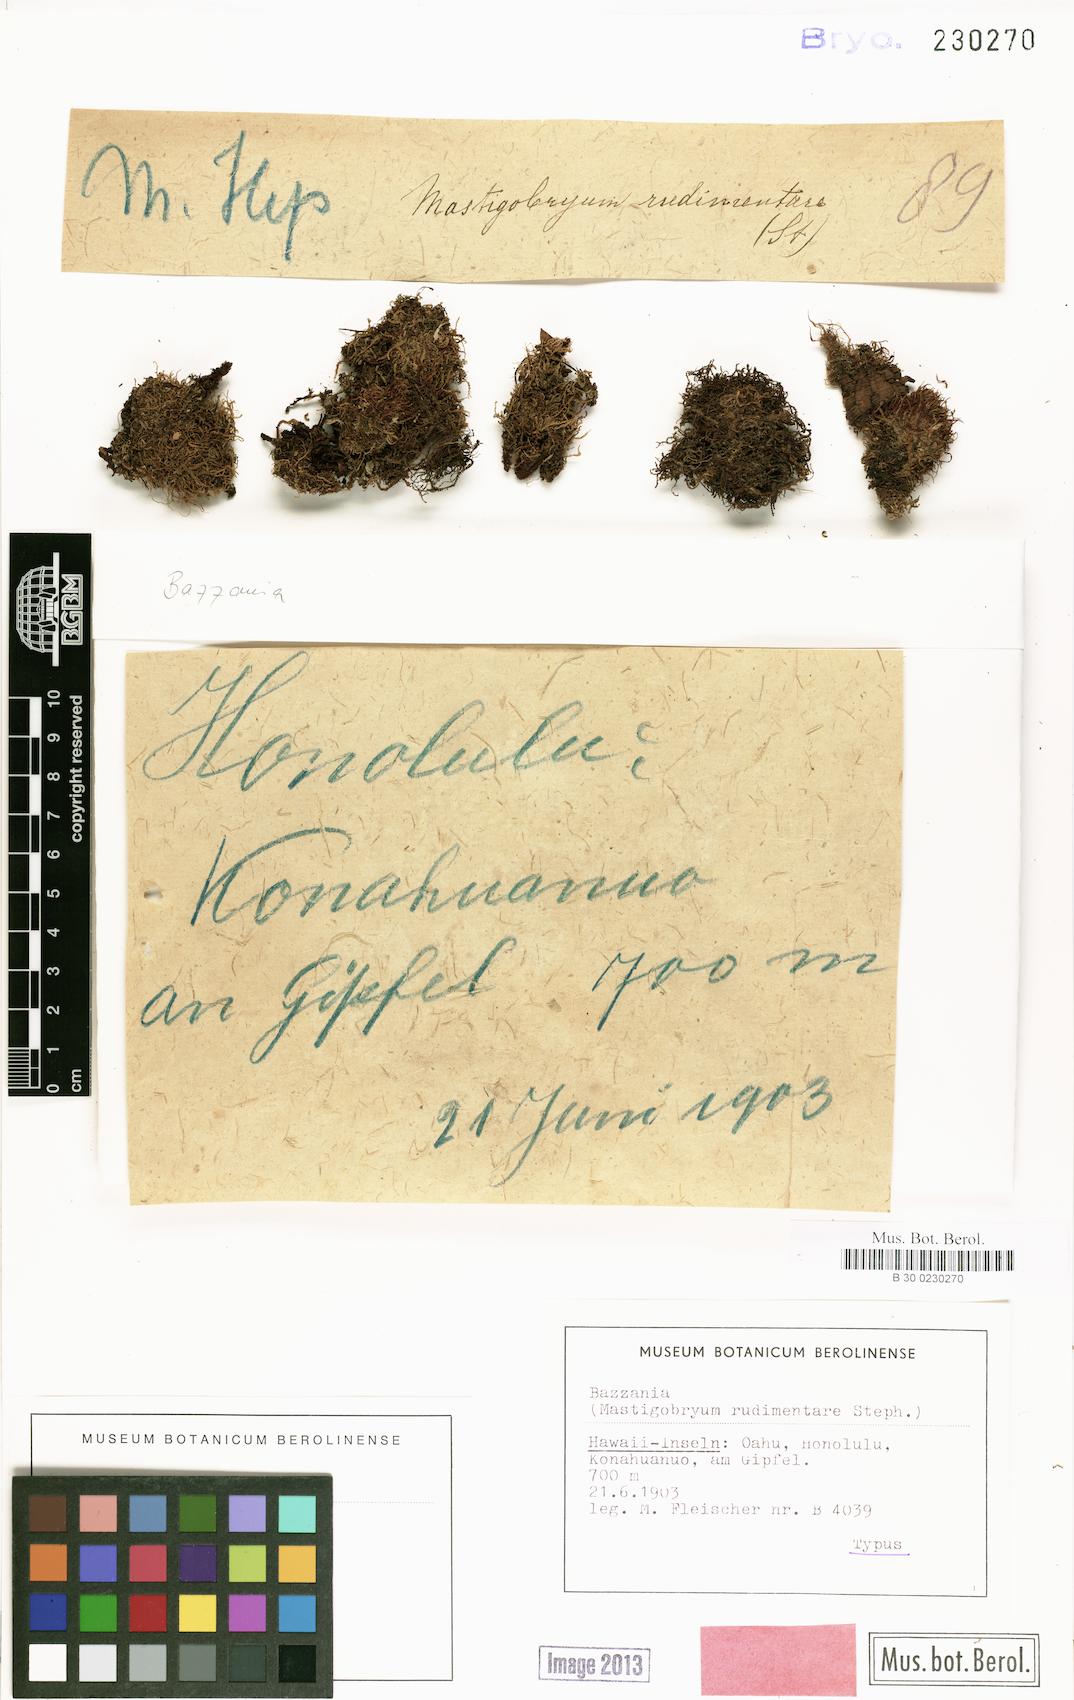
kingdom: Plantae
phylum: Marchantiophyta
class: Jungermanniopsida
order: Jungermanniales
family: Lepidoziaceae
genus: Acromastigum
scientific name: Acromastigum integrifolium
